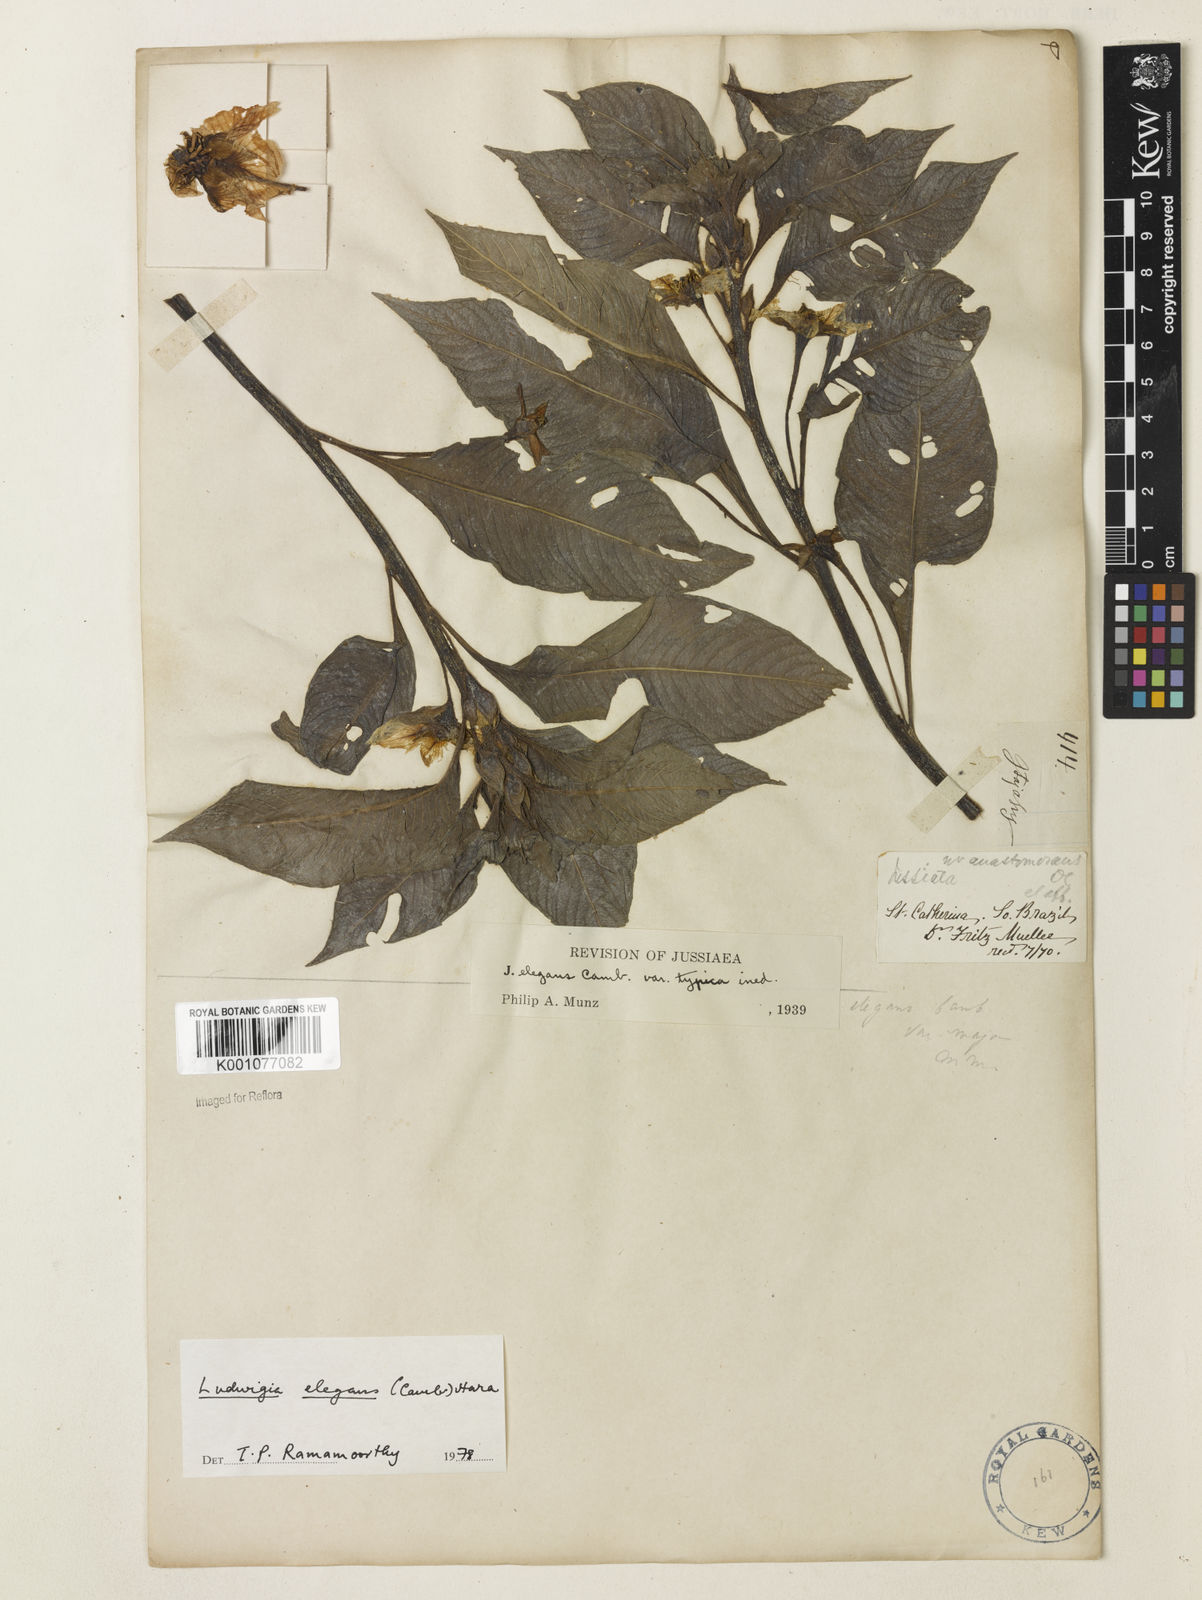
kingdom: Plantae
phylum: Tracheophyta
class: Magnoliopsida
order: Myrtales
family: Onagraceae
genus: Ludwigia
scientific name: Ludwigia elegans
